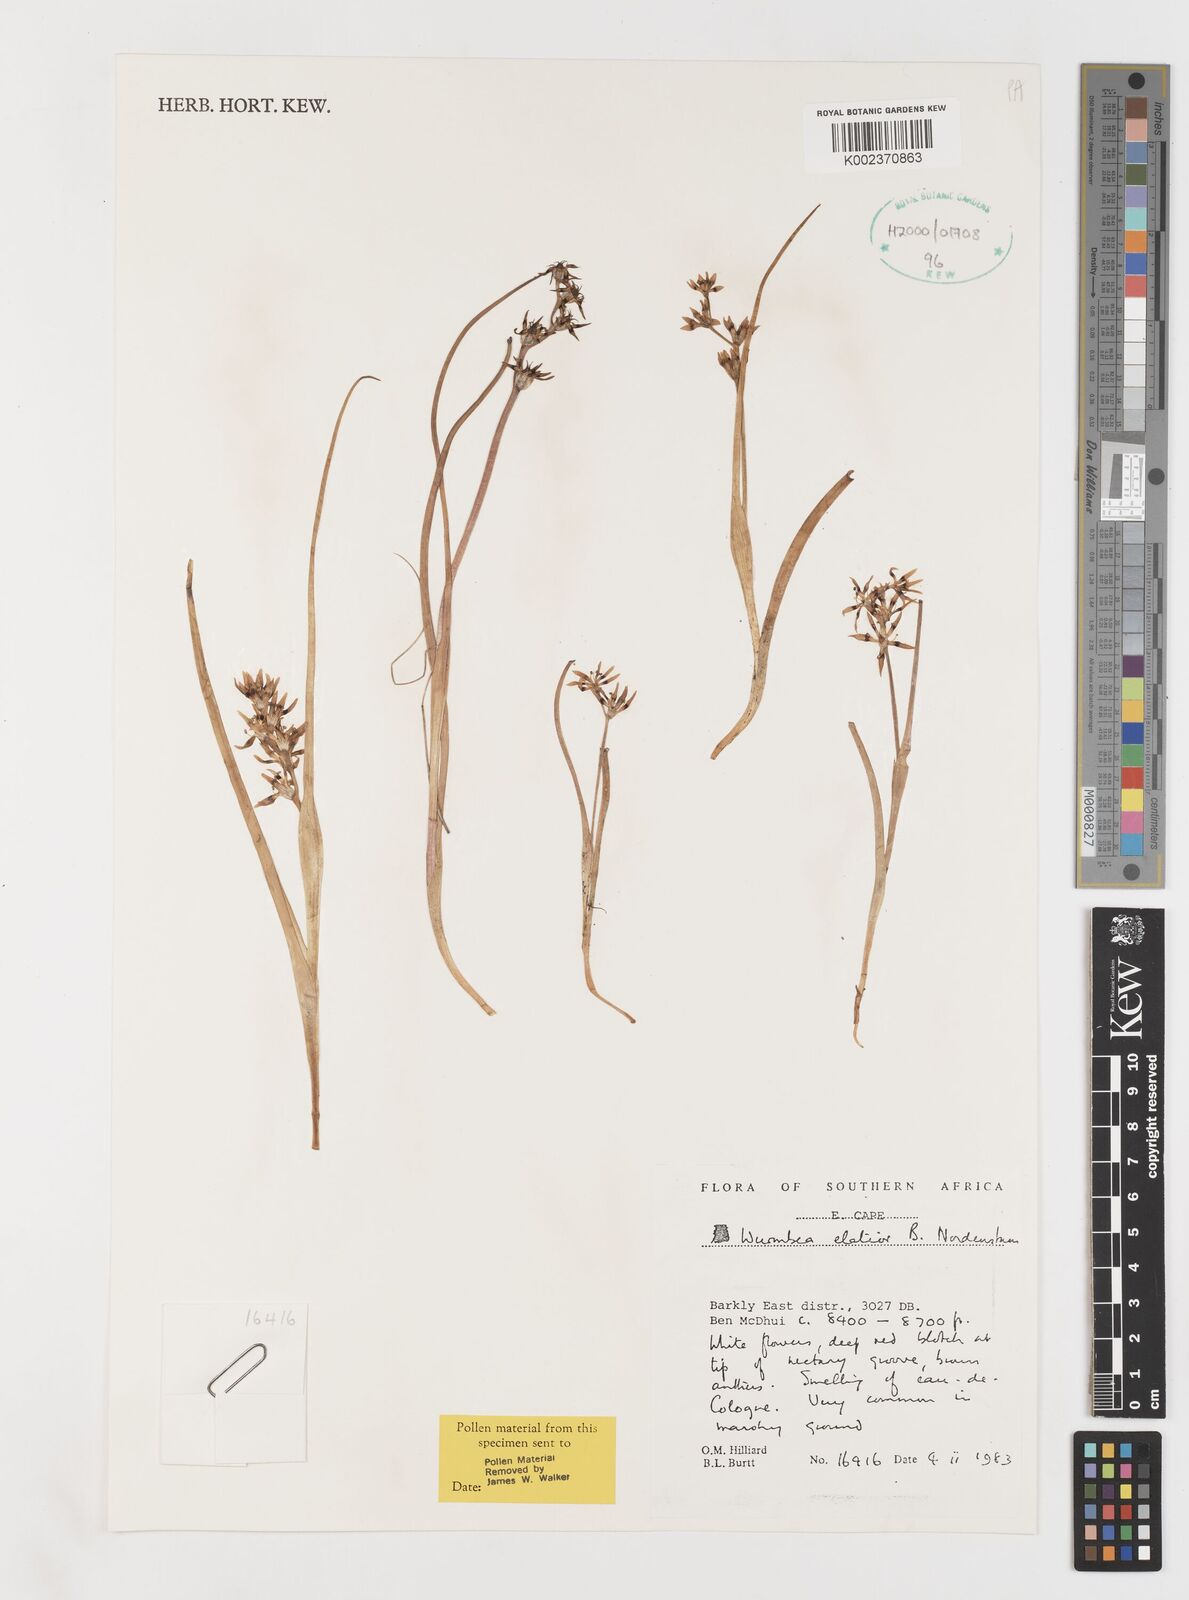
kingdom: Plantae
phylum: Tracheophyta
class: Liliopsida
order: Liliales
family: Colchicaceae
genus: Wurmbea
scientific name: Wurmbea elatior
